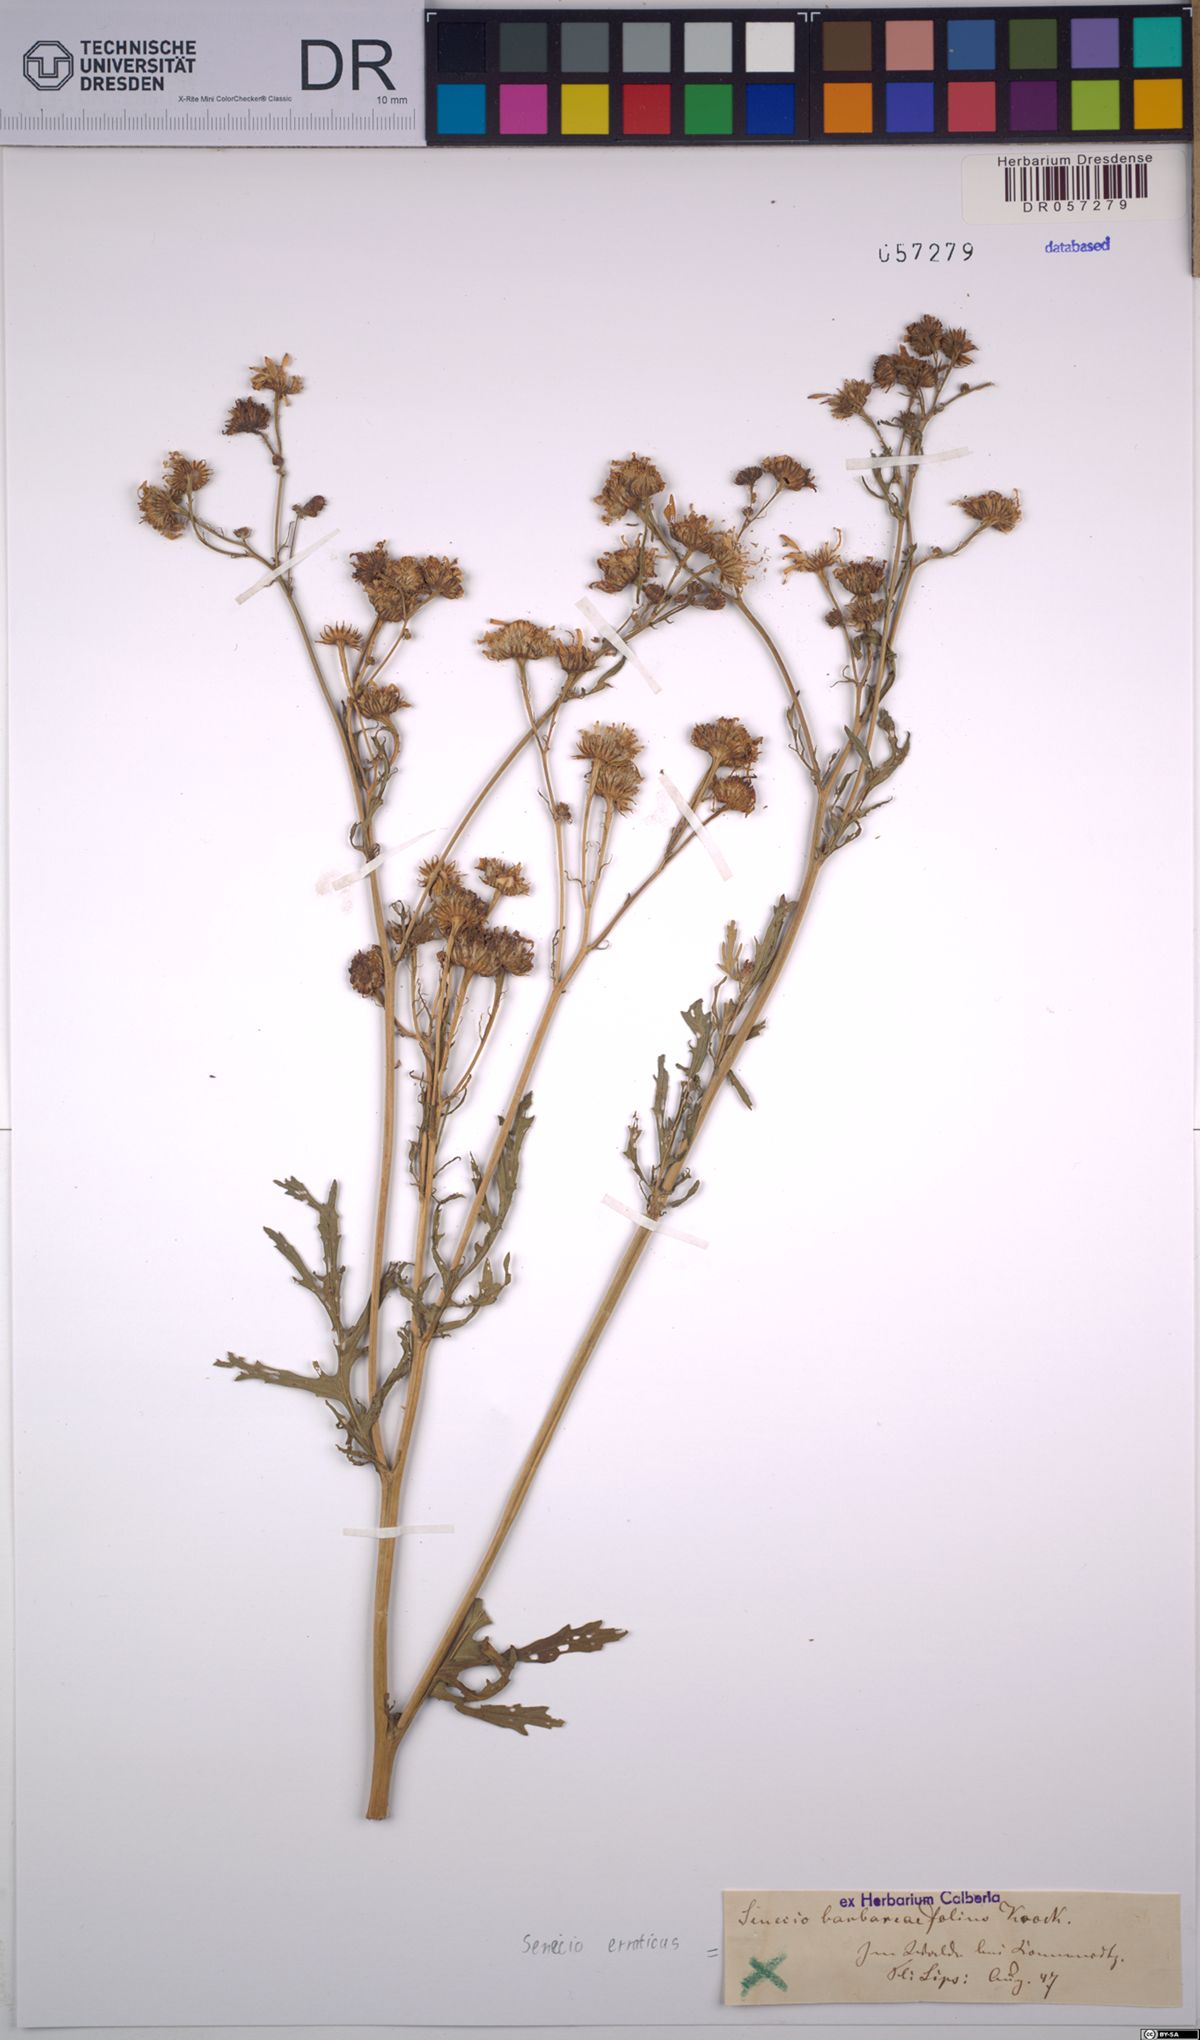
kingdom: Plantae
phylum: Tracheophyta
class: Magnoliopsida
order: Asterales
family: Asteraceae
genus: Jacobaea
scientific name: Jacobaea erratica
